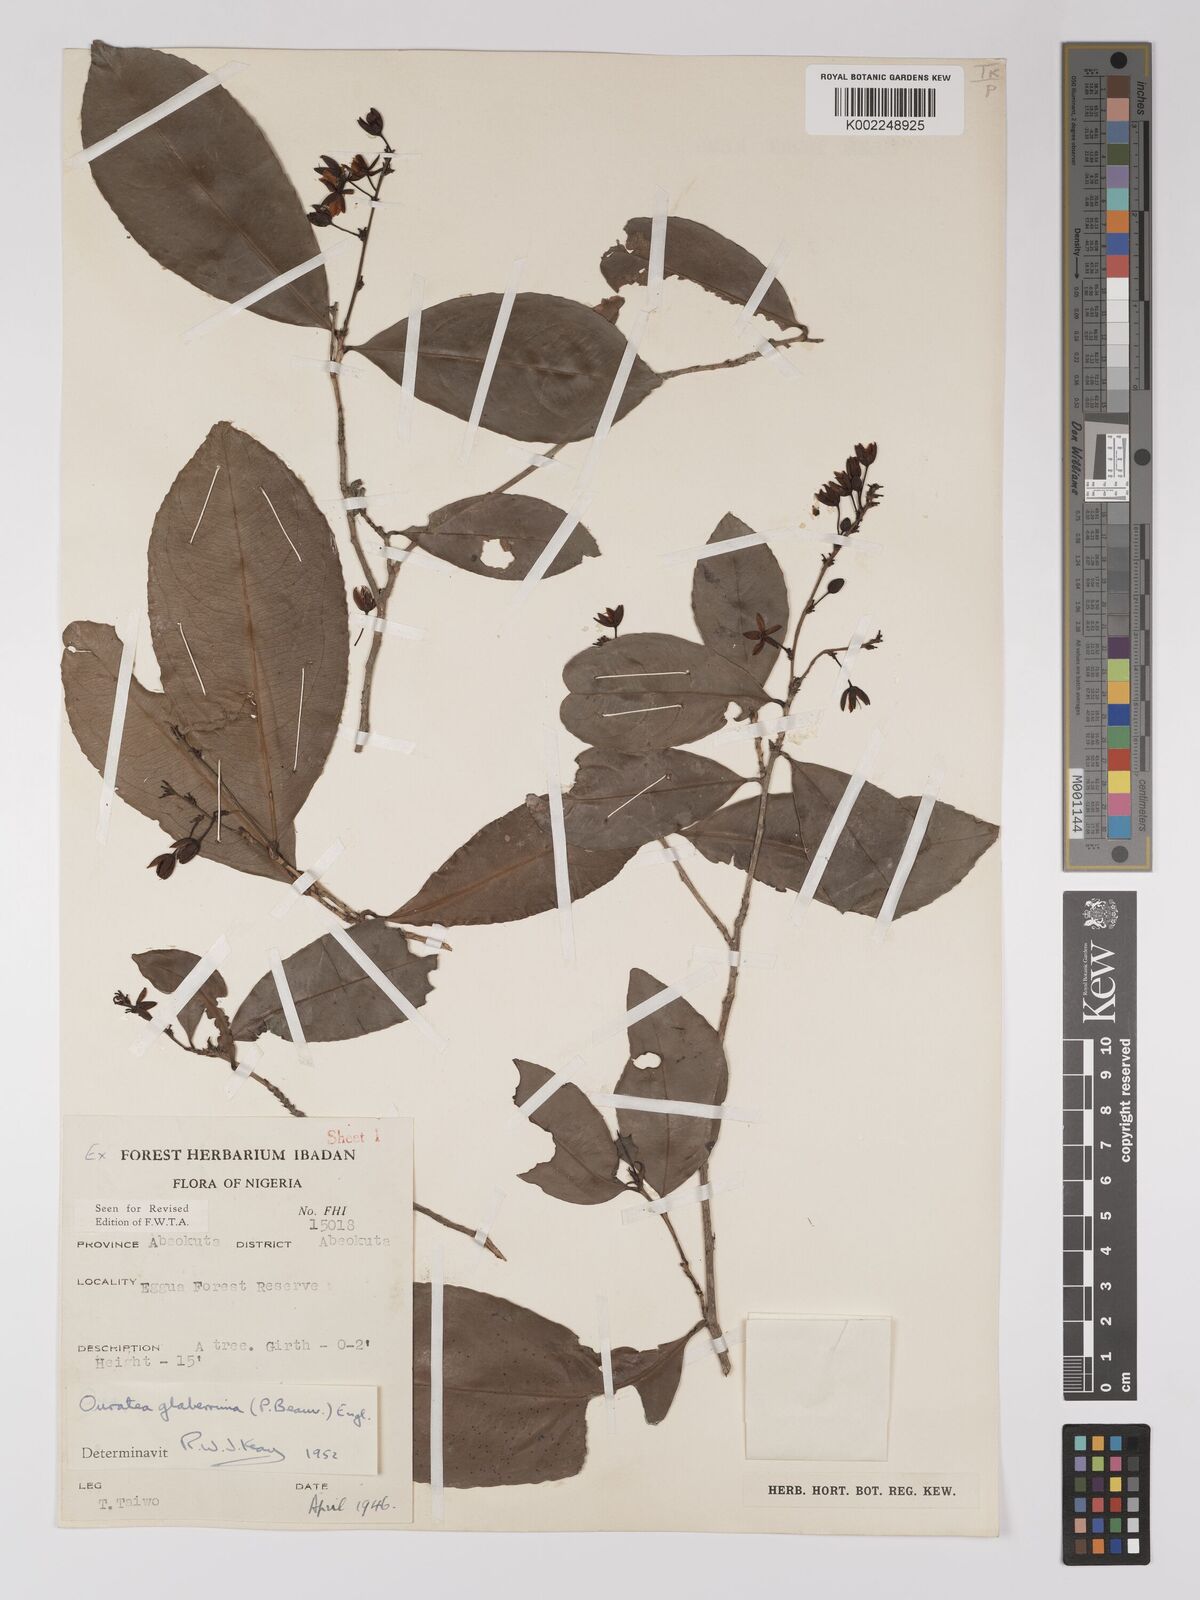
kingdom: Plantae
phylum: Tracheophyta
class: Magnoliopsida
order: Malpighiales
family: Ochnaceae
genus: Campylospermum
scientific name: Campylospermum glaberrimum
